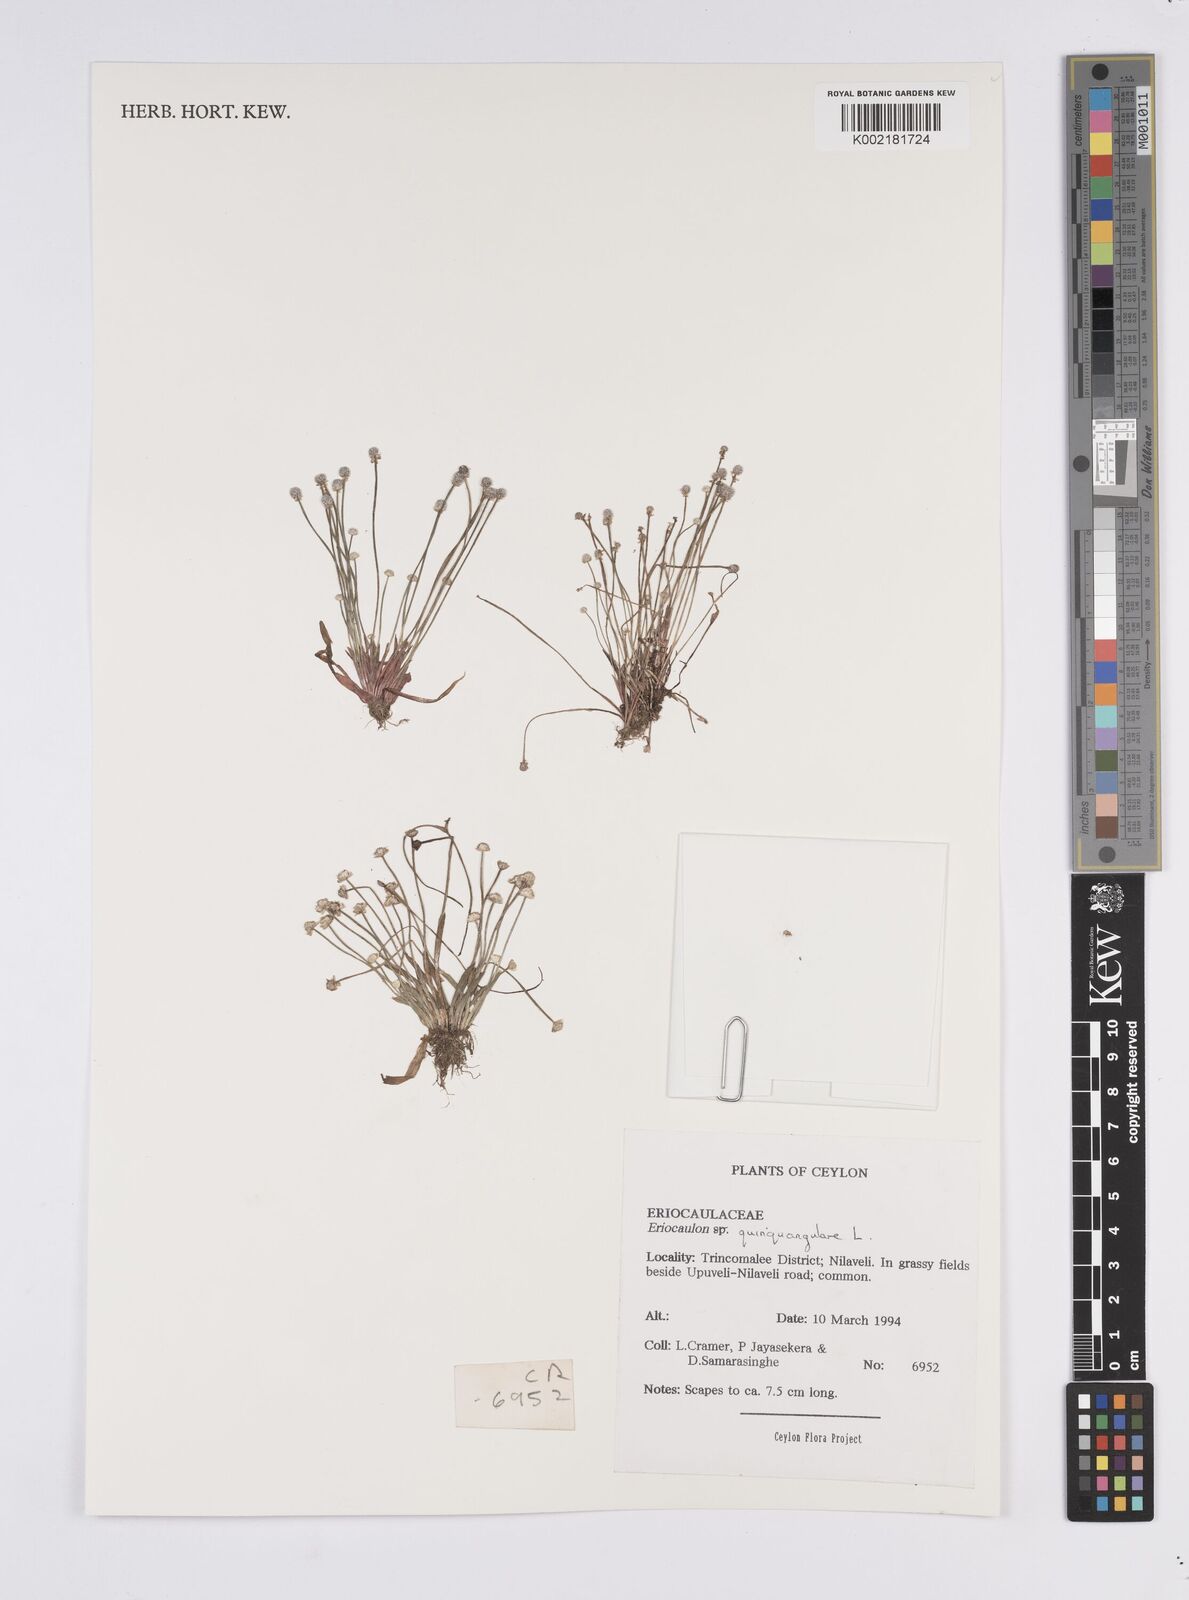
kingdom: Plantae
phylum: Tracheophyta
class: Liliopsida
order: Poales
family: Eriocaulaceae
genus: Eriocaulon
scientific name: Eriocaulon quinquangulare
